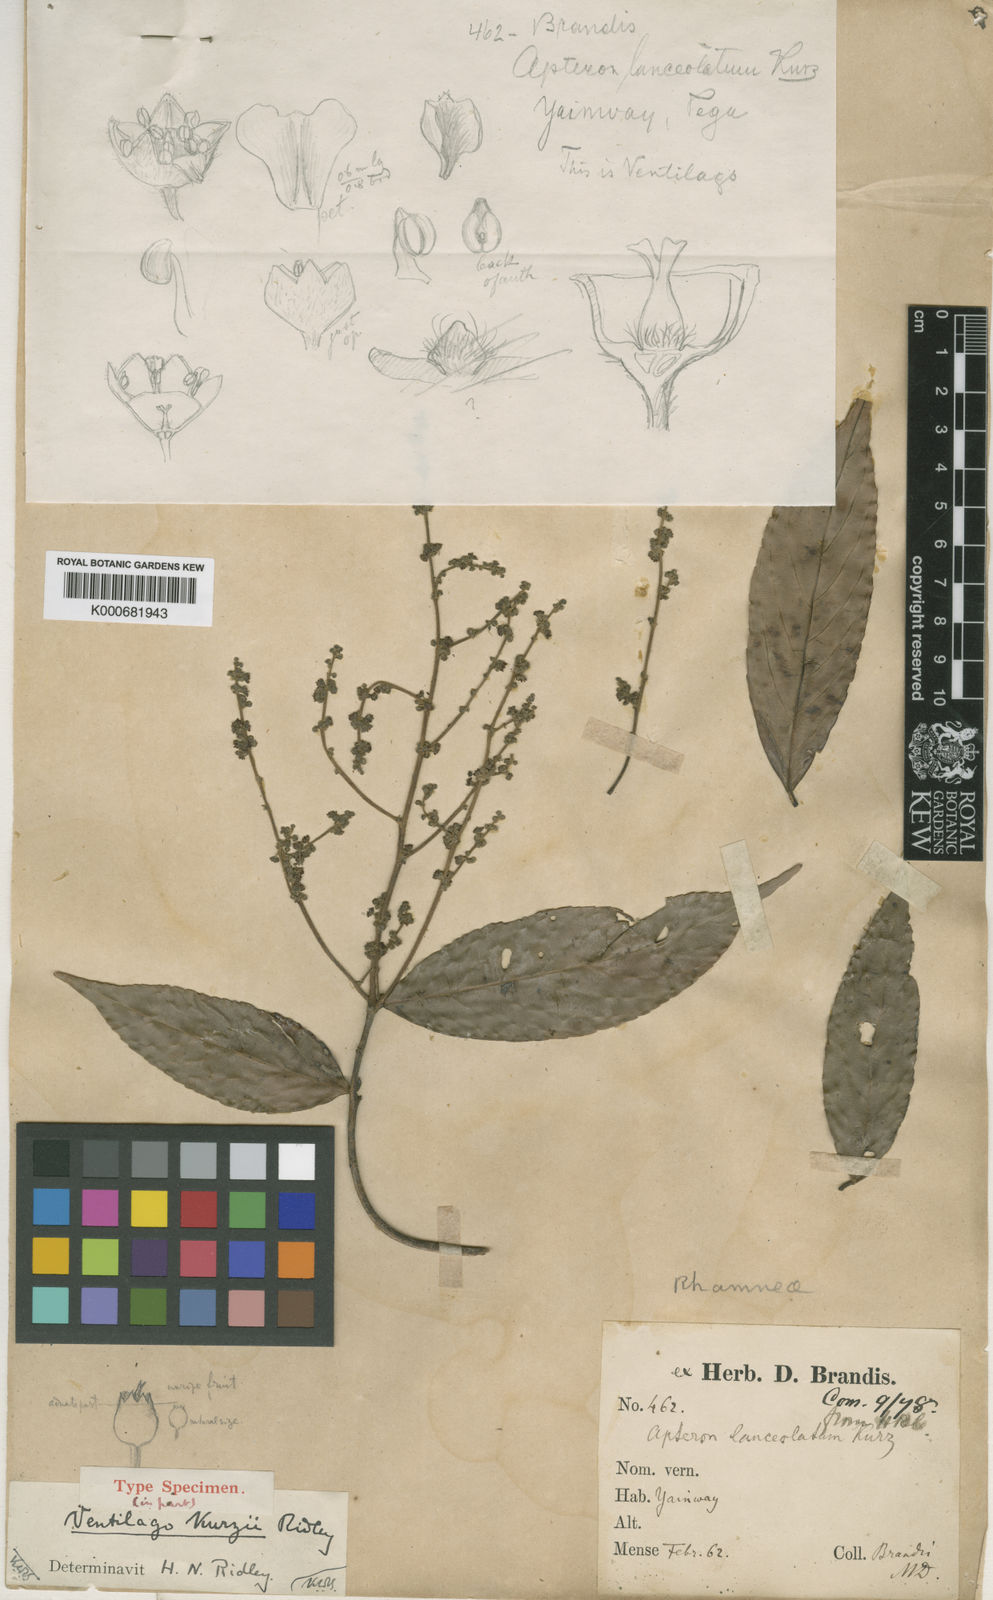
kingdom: Plantae
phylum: Tracheophyta
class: Magnoliopsida
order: Rosales
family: Rhamnaceae
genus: Ventilago
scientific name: Ventilago kurzii
